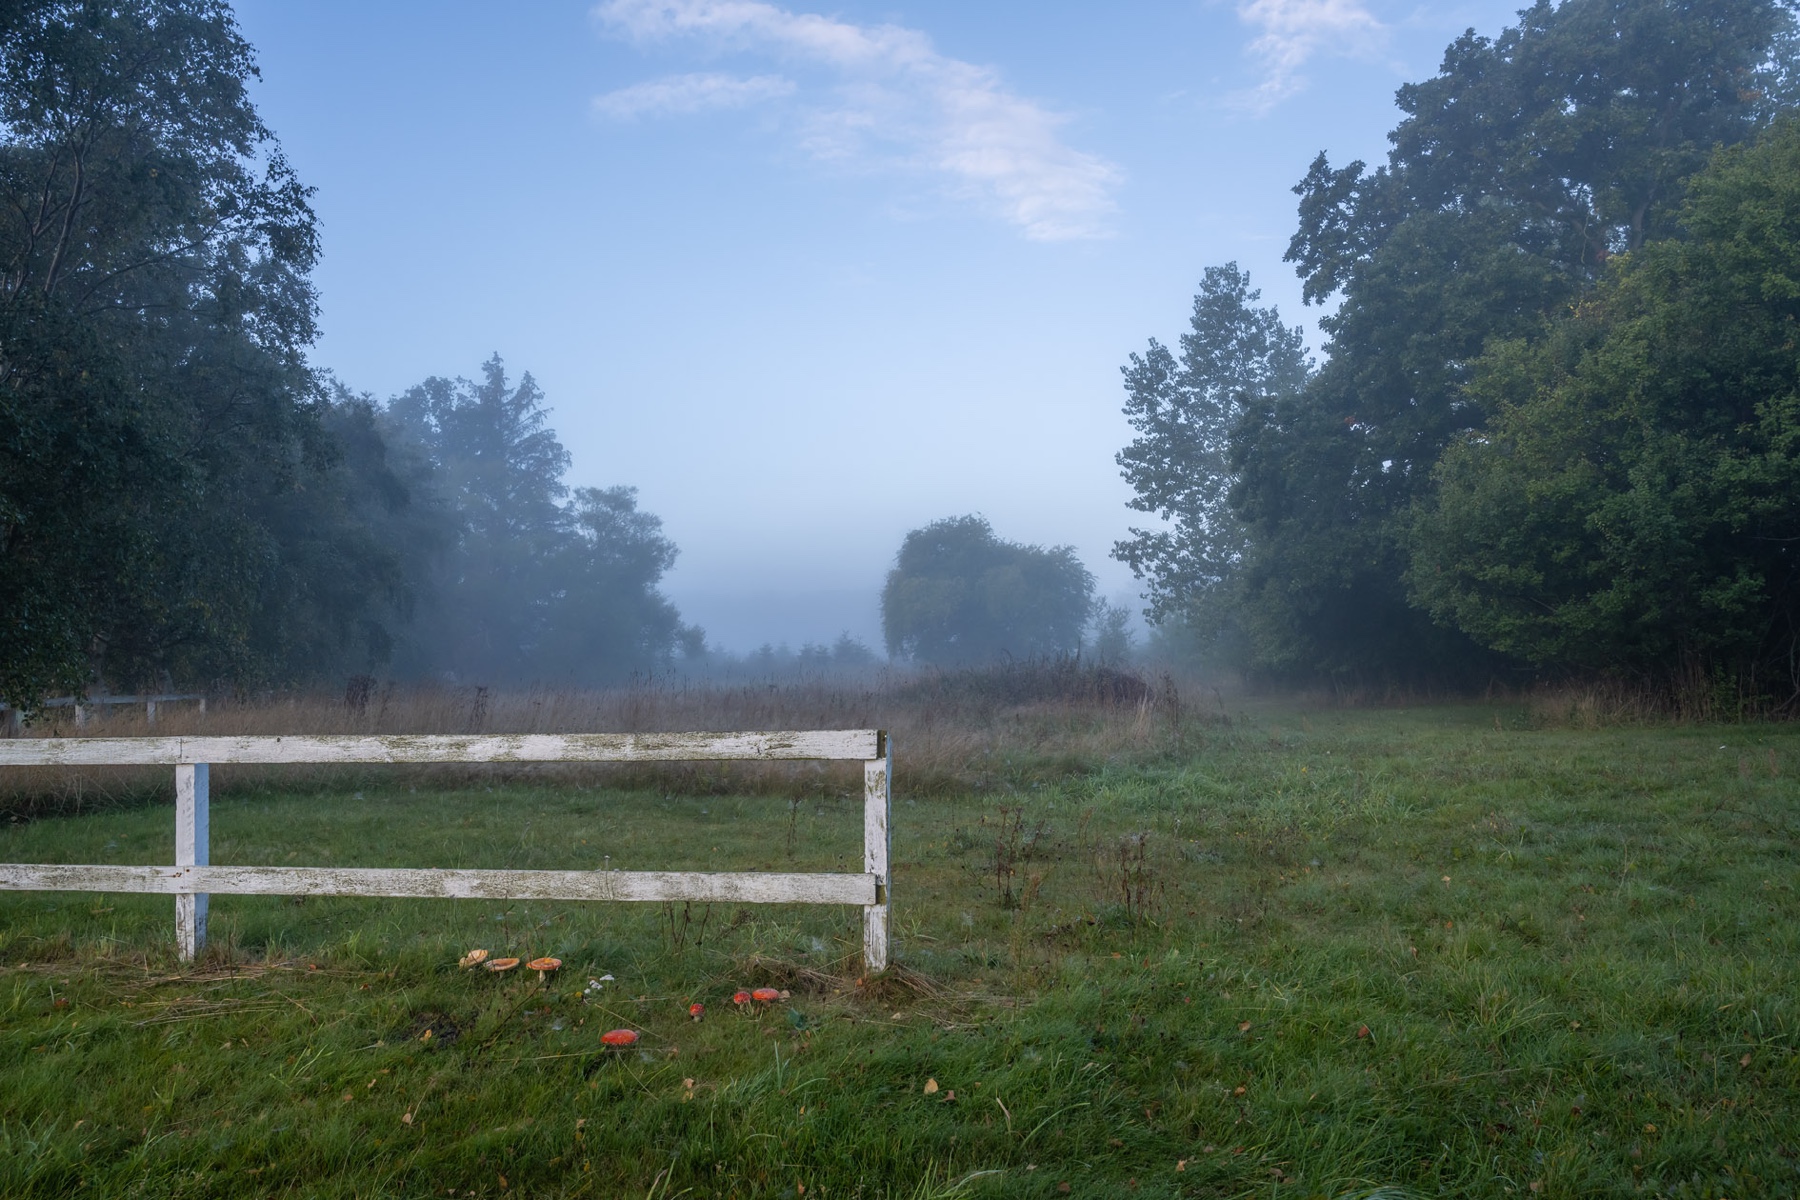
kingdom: Fungi
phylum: Basidiomycota
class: Agaricomycetes
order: Agaricales
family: Amanitaceae
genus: Amanita
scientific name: Amanita muscaria
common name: rød fluesvamp
